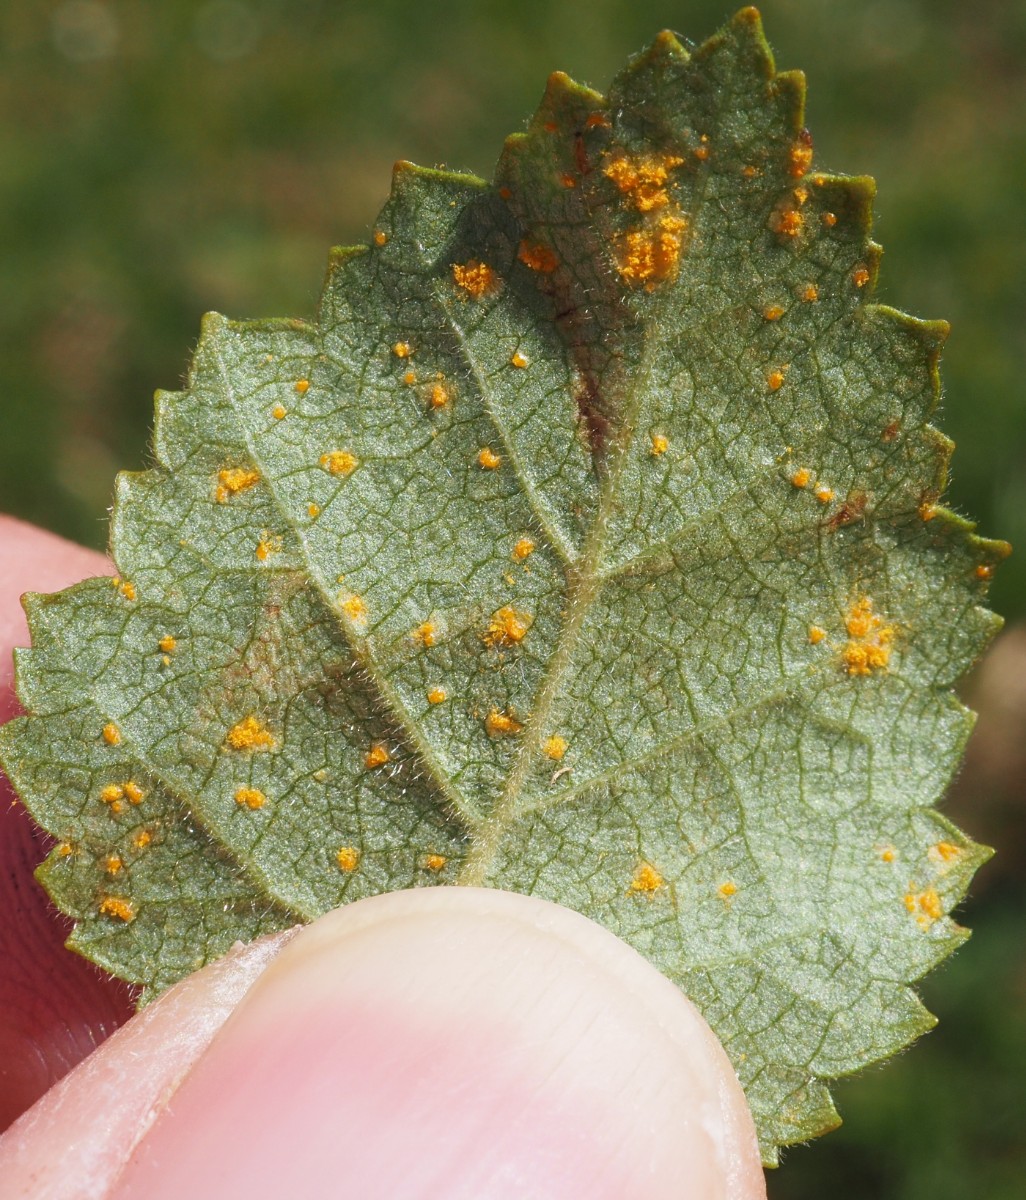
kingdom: Fungi
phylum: Basidiomycota
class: Pucciniomycetes
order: Pucciniales
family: Pucciniastraceae
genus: Melampsoridium
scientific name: Melampsoridium betulinum
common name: Birch rust
